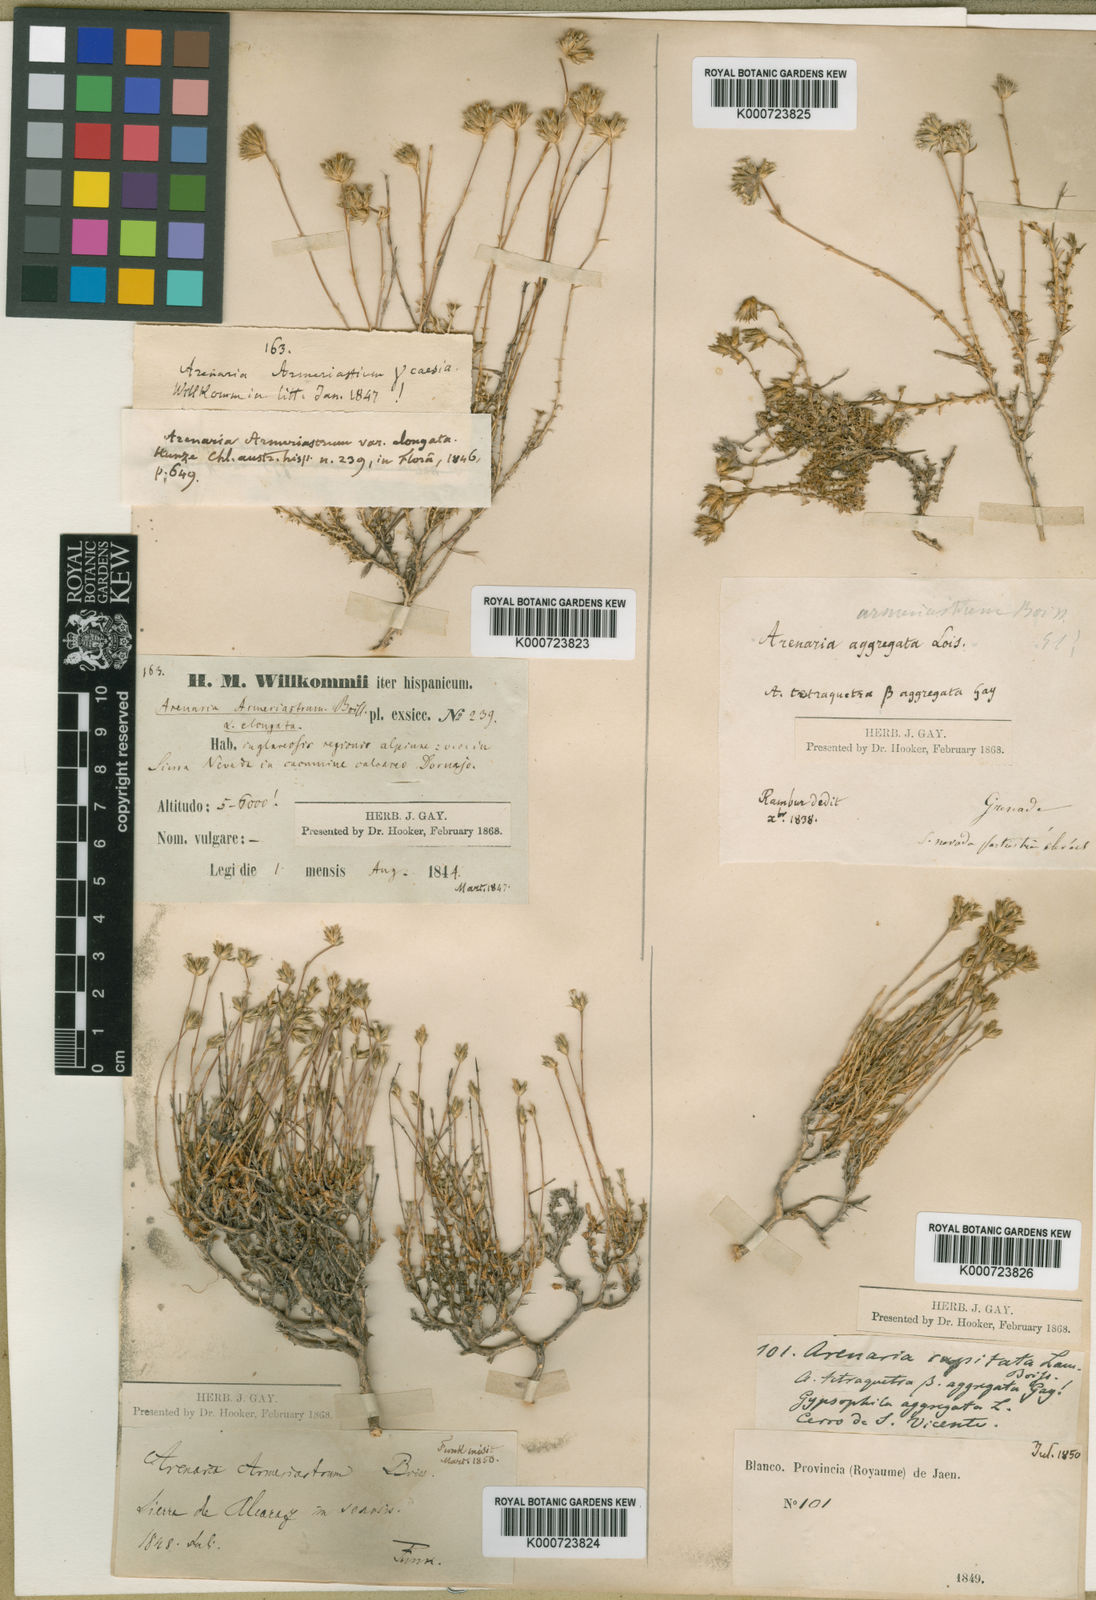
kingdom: Plantae
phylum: Tracheophyta
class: Magnoliopsida
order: Caryophyllales
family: Caryophyllaceae
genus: Arenaria
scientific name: Arenaria armerina
